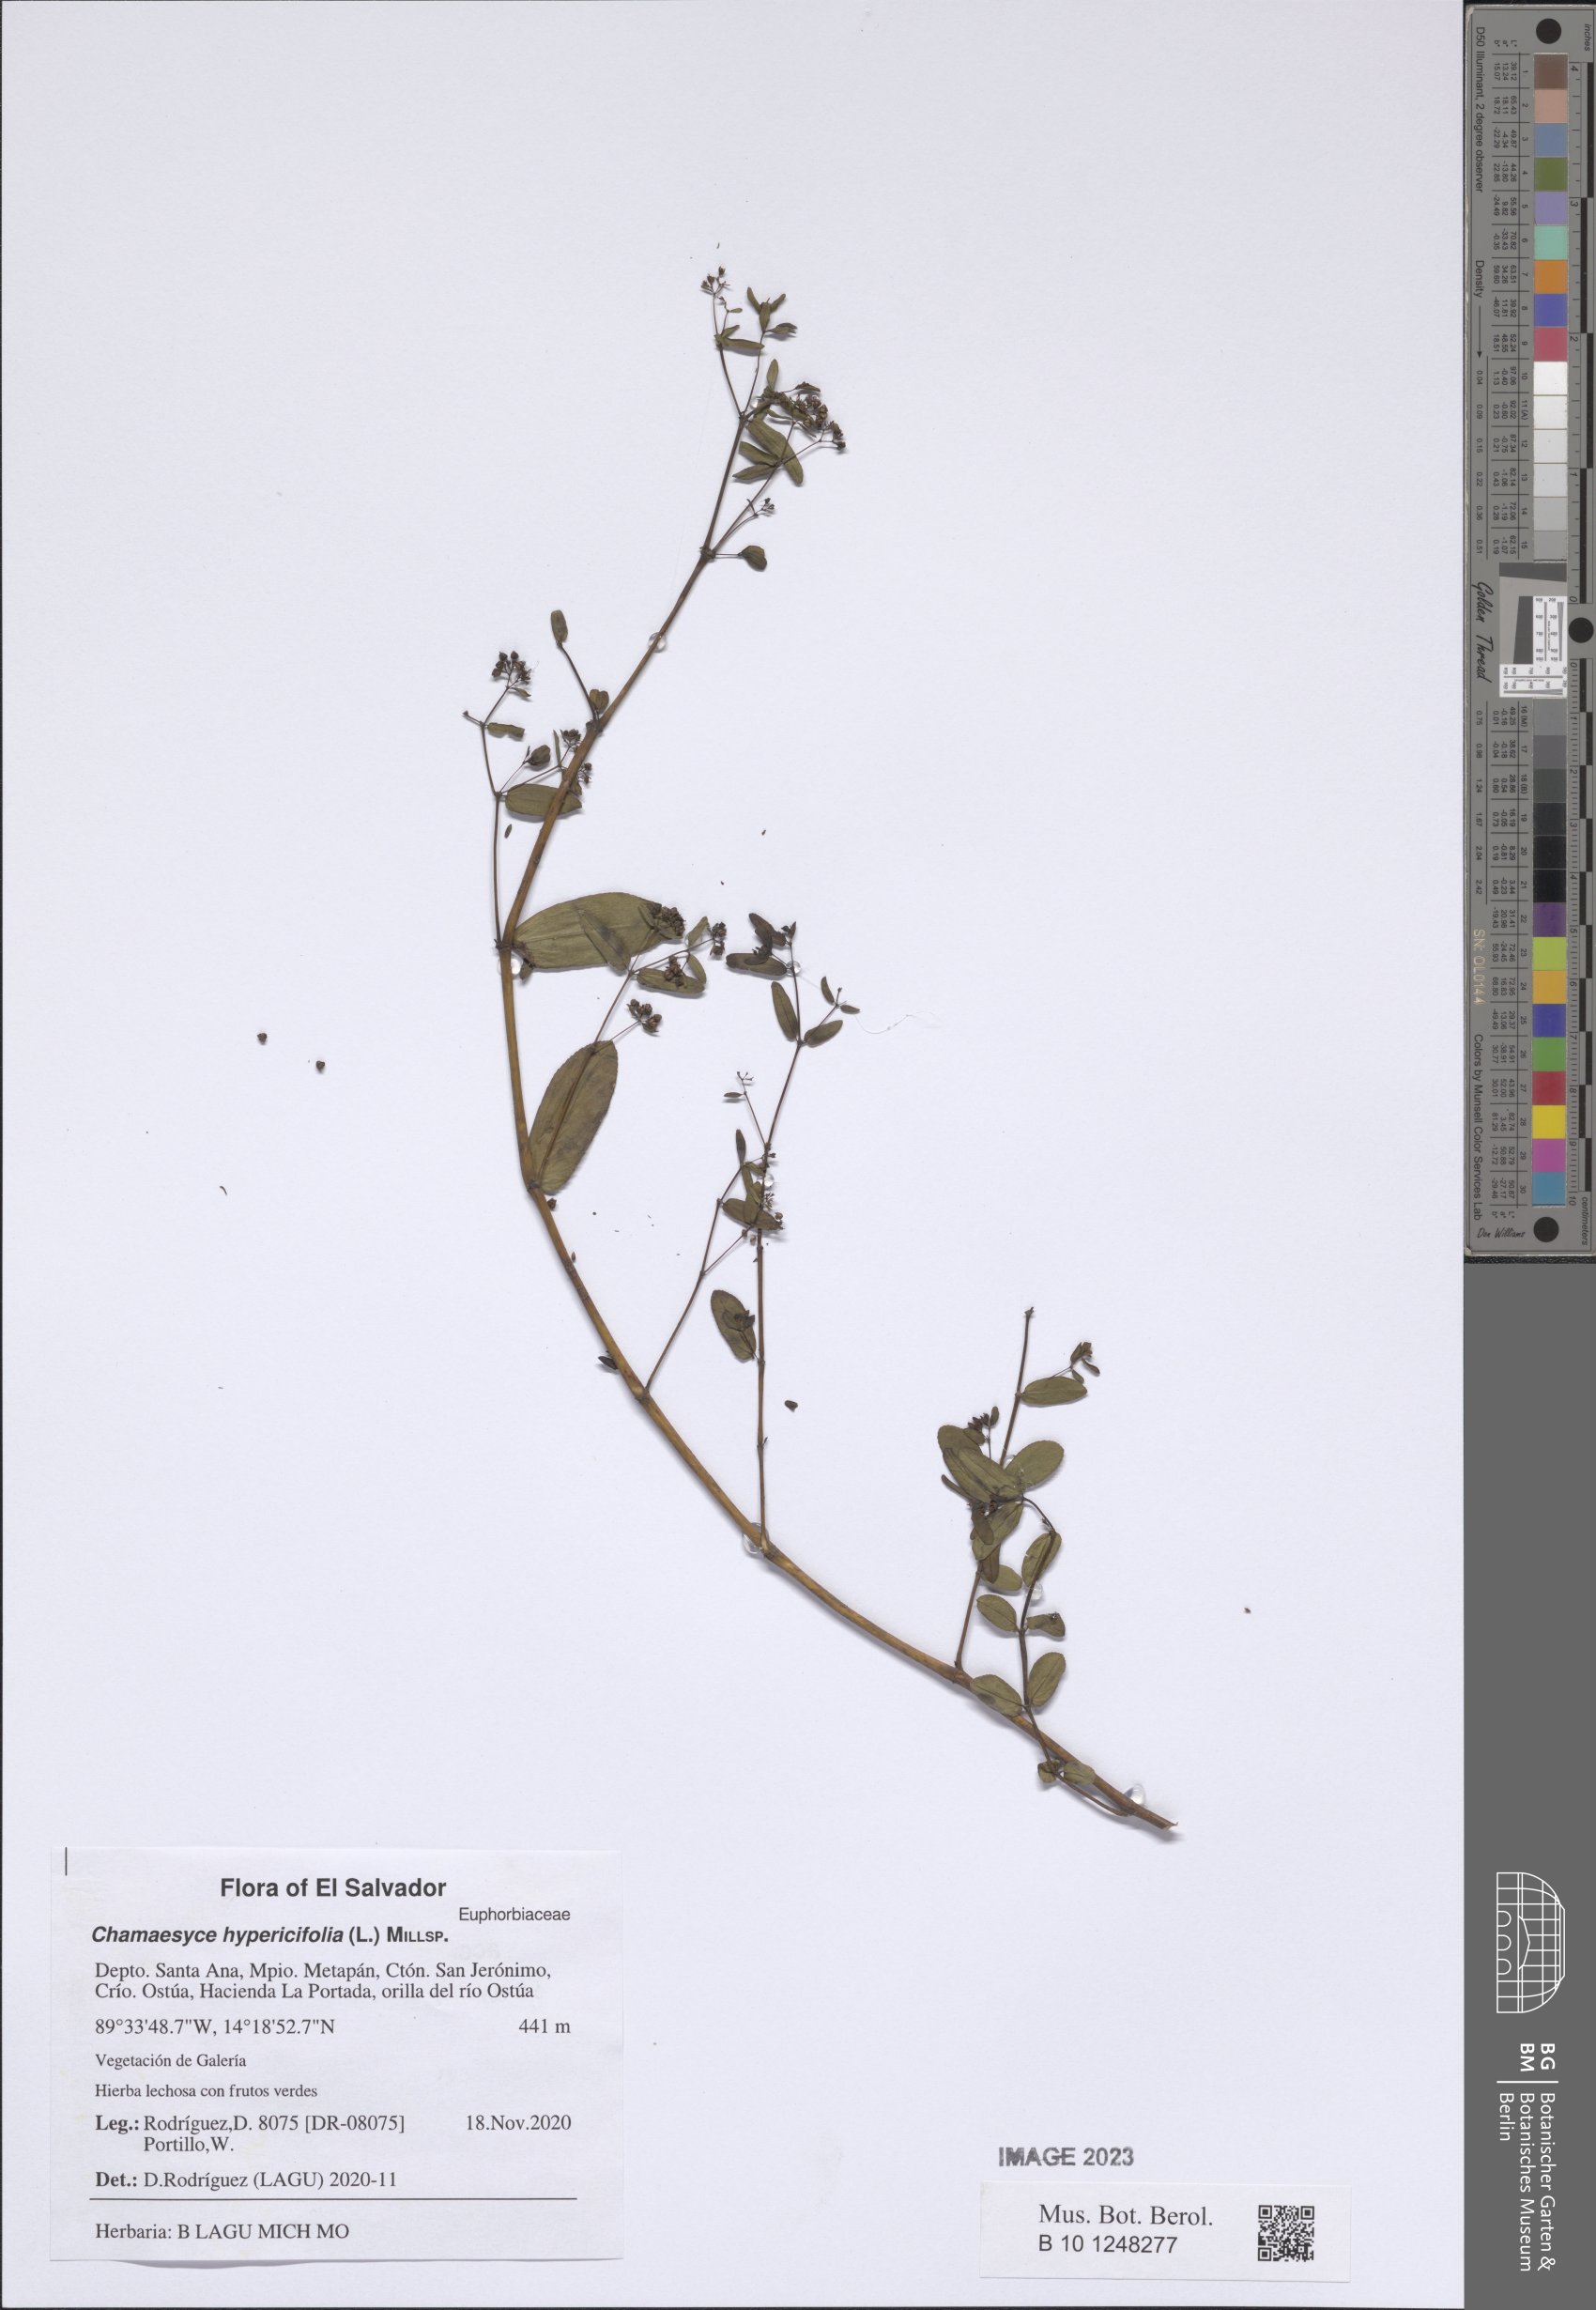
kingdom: Plantae
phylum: Tracheophyta
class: Magnoliopsida
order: Malpighiales
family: Euphorbiaceae
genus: Euphorbia
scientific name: Euphorbia hypericifolia
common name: Graceful sandmat
